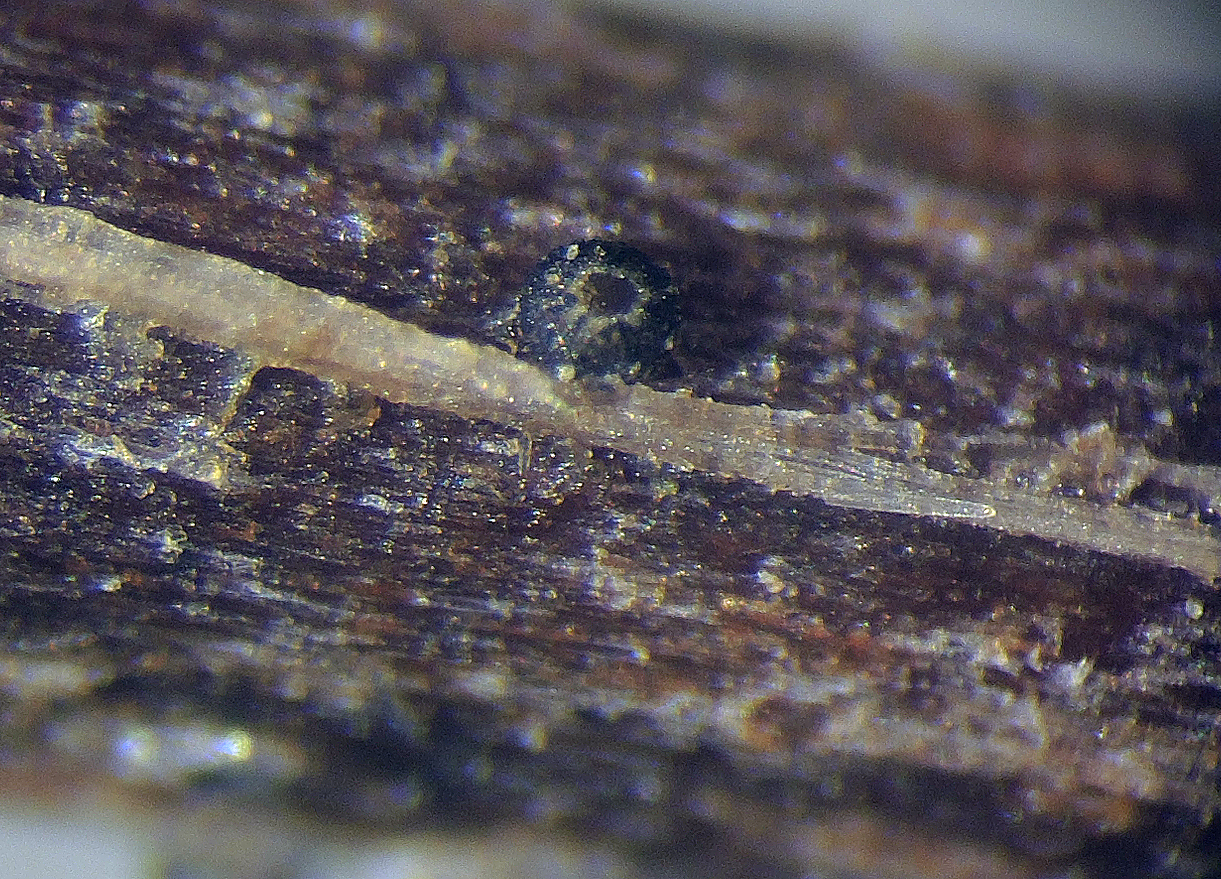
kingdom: Fungi
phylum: Ascomycota
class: Leotiomycetes
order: Helotiales
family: Ploettnerulaceae
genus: Pirottaea
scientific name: Pirottaea paupercula
